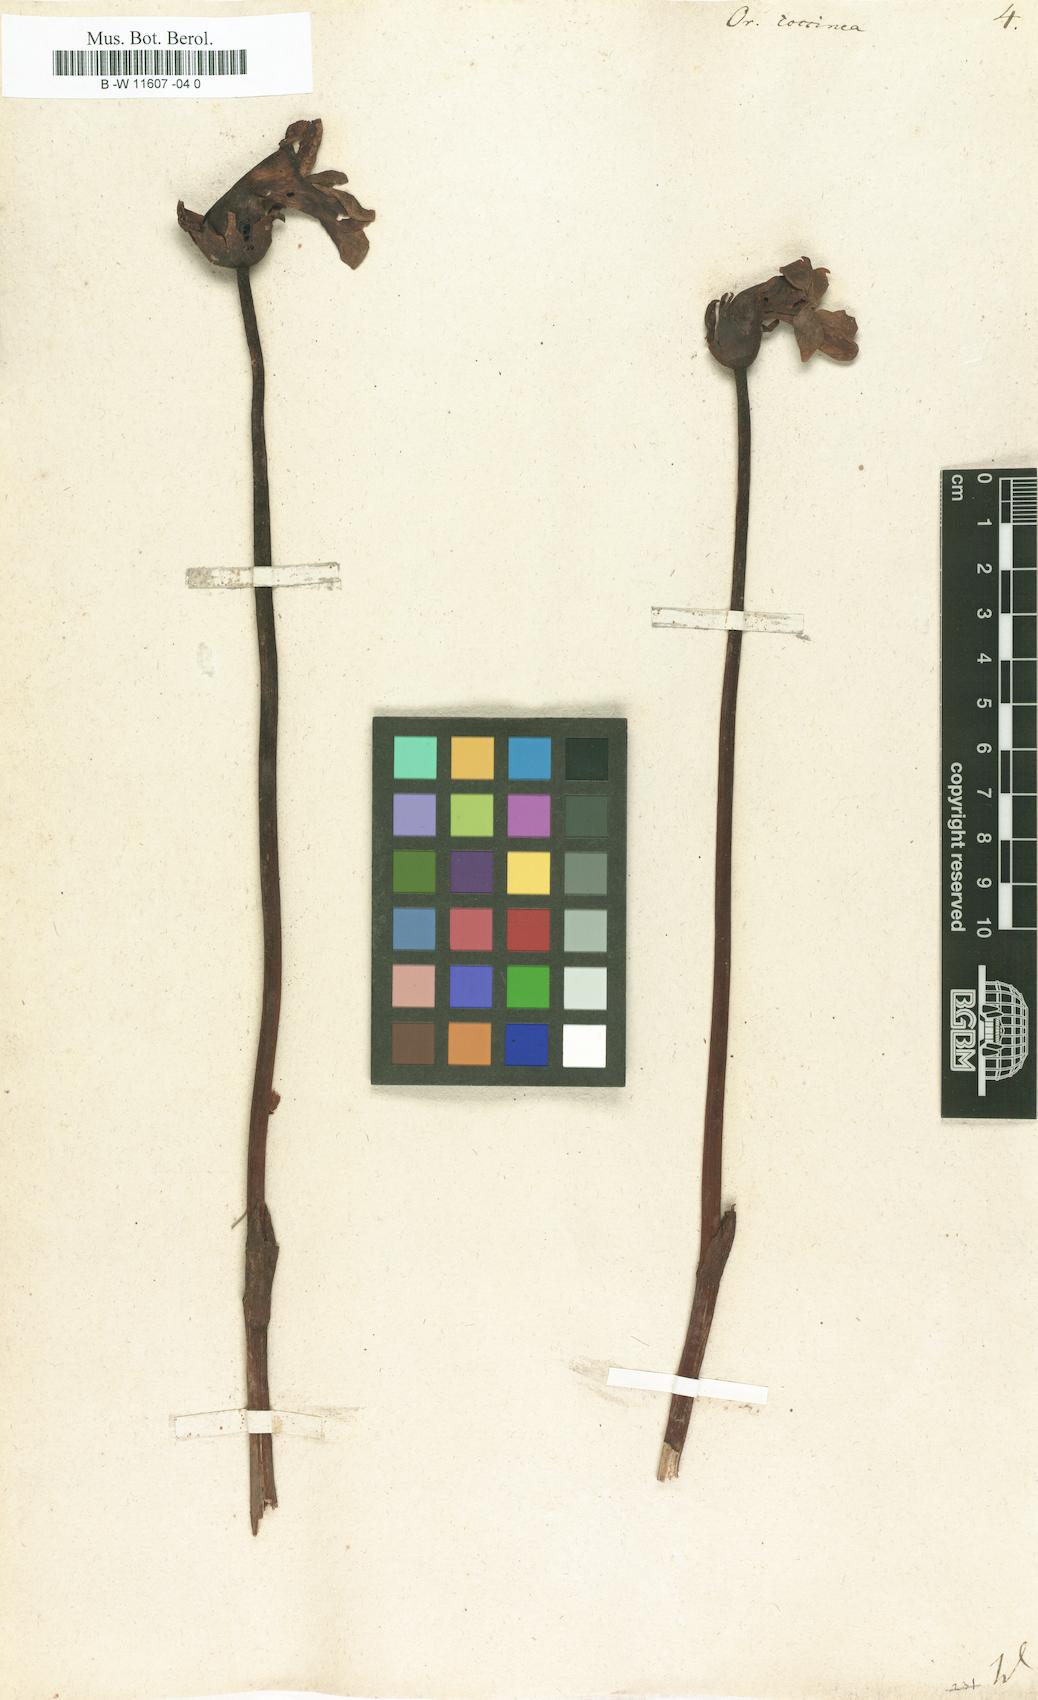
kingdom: Plantae
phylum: Tracheophyta
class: Magnoliopsida
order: Lamiales
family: Orobanchaceae
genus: Diphelypaea
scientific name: Diphelypaea coccinea
